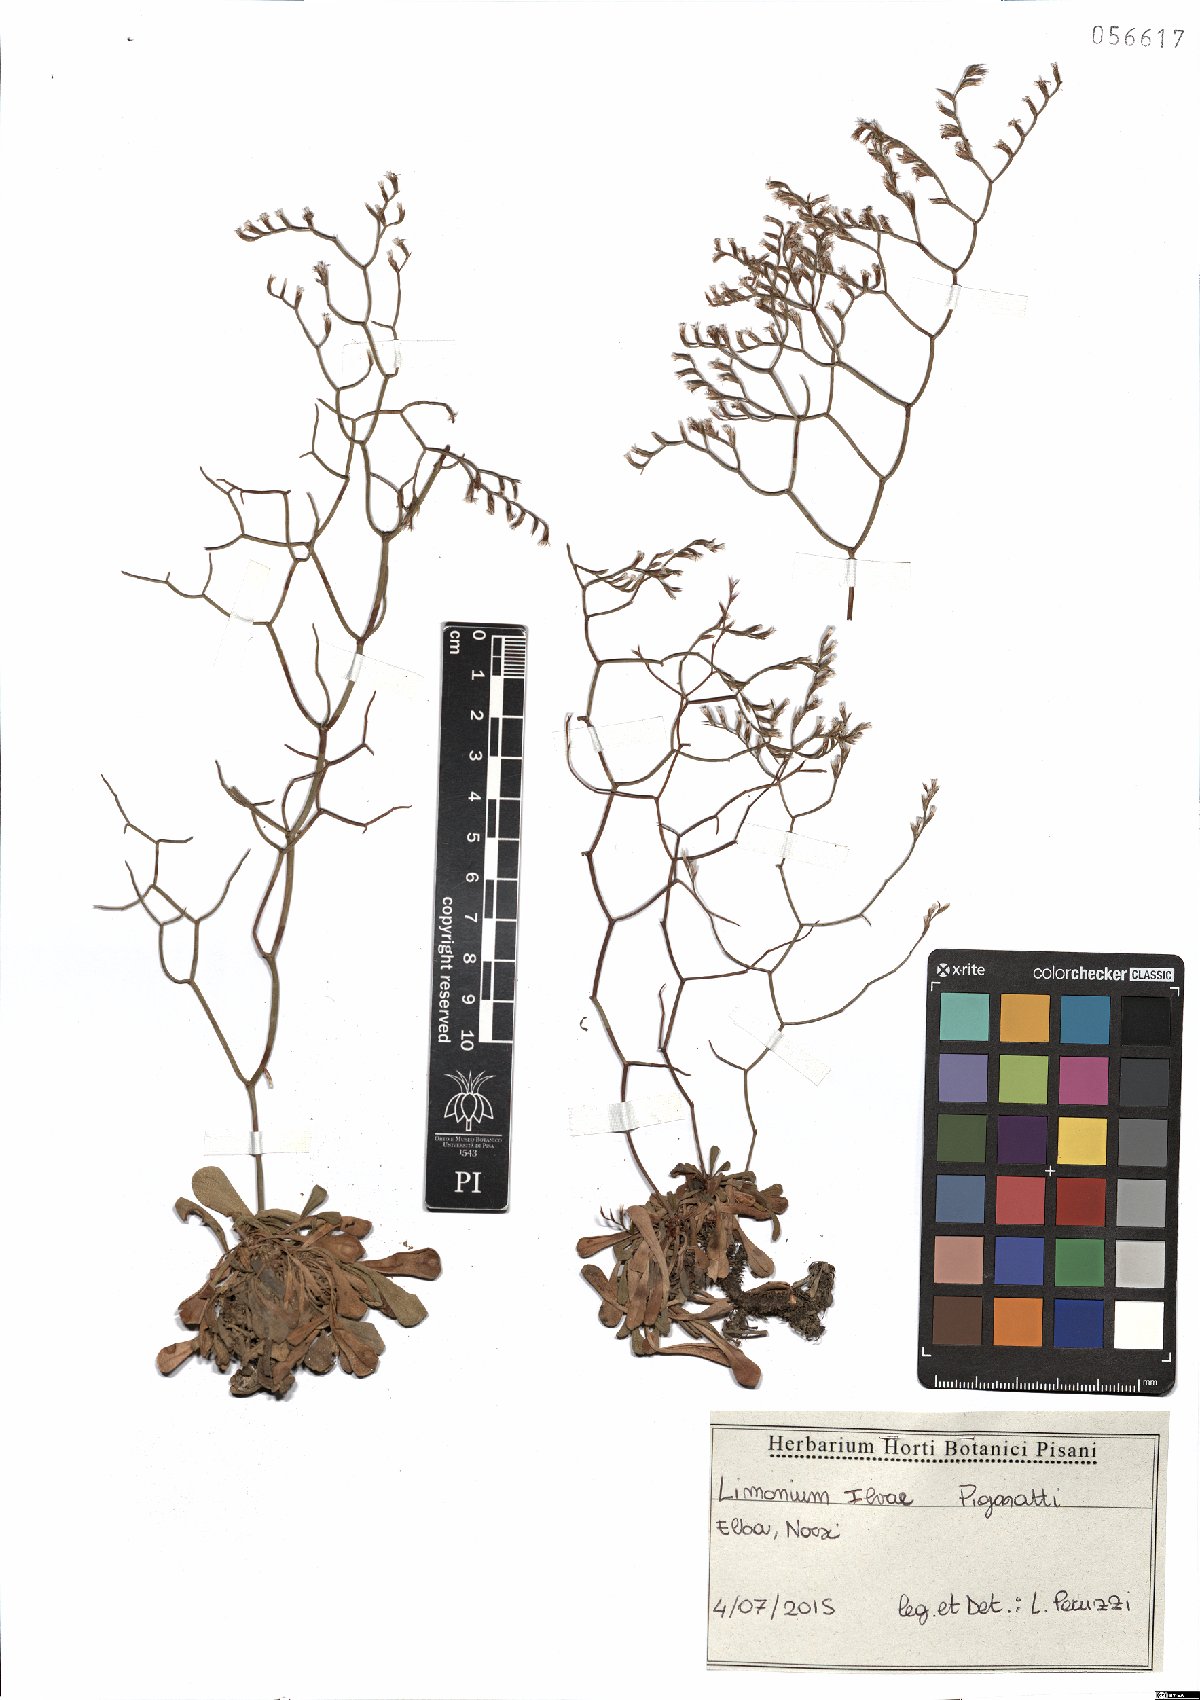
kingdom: Plantae
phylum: Tracheophyta
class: Magnoliopsida
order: Caryophyllales
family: Plumbaginaceae
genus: Limonium
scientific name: Limonium ilvae
